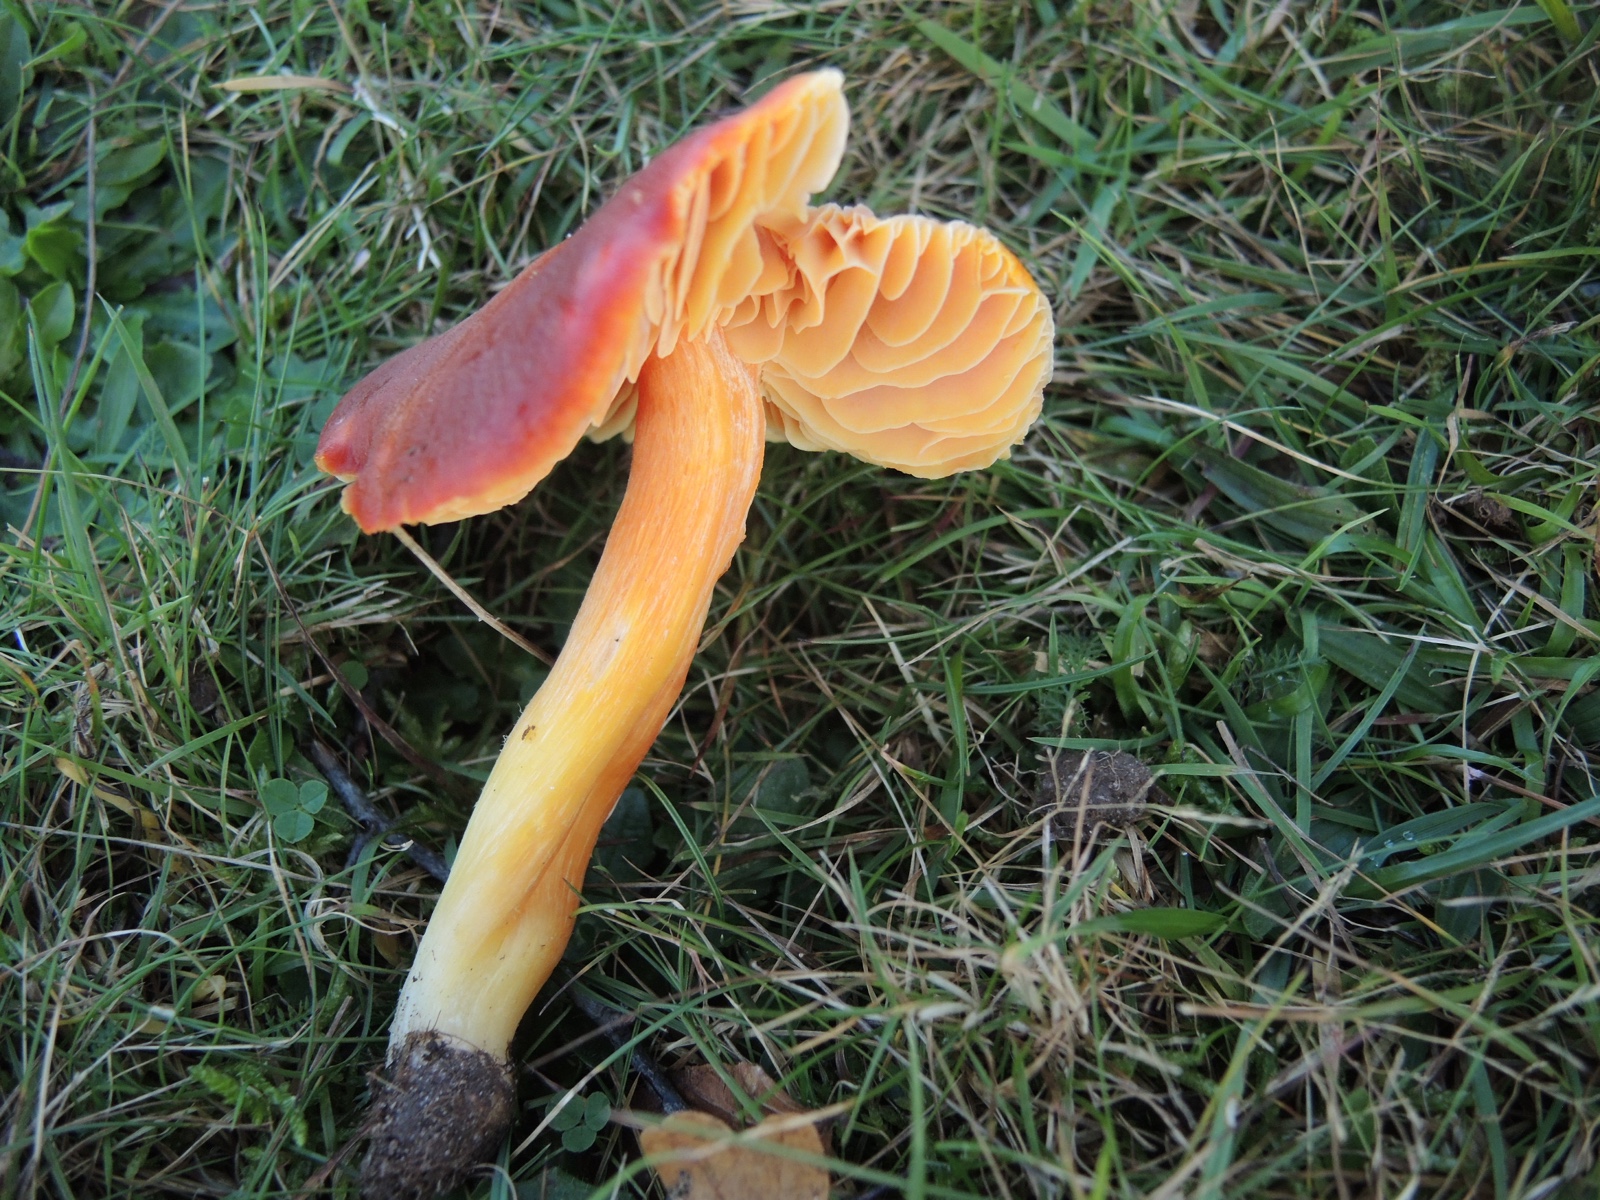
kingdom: Fungi
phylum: Basidiomycota
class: Agaricomycetes
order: Agaricales
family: Hygrophoraceae
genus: Hygrocybe
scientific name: Hygrocybe punicea
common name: skarlagen-vokshat
